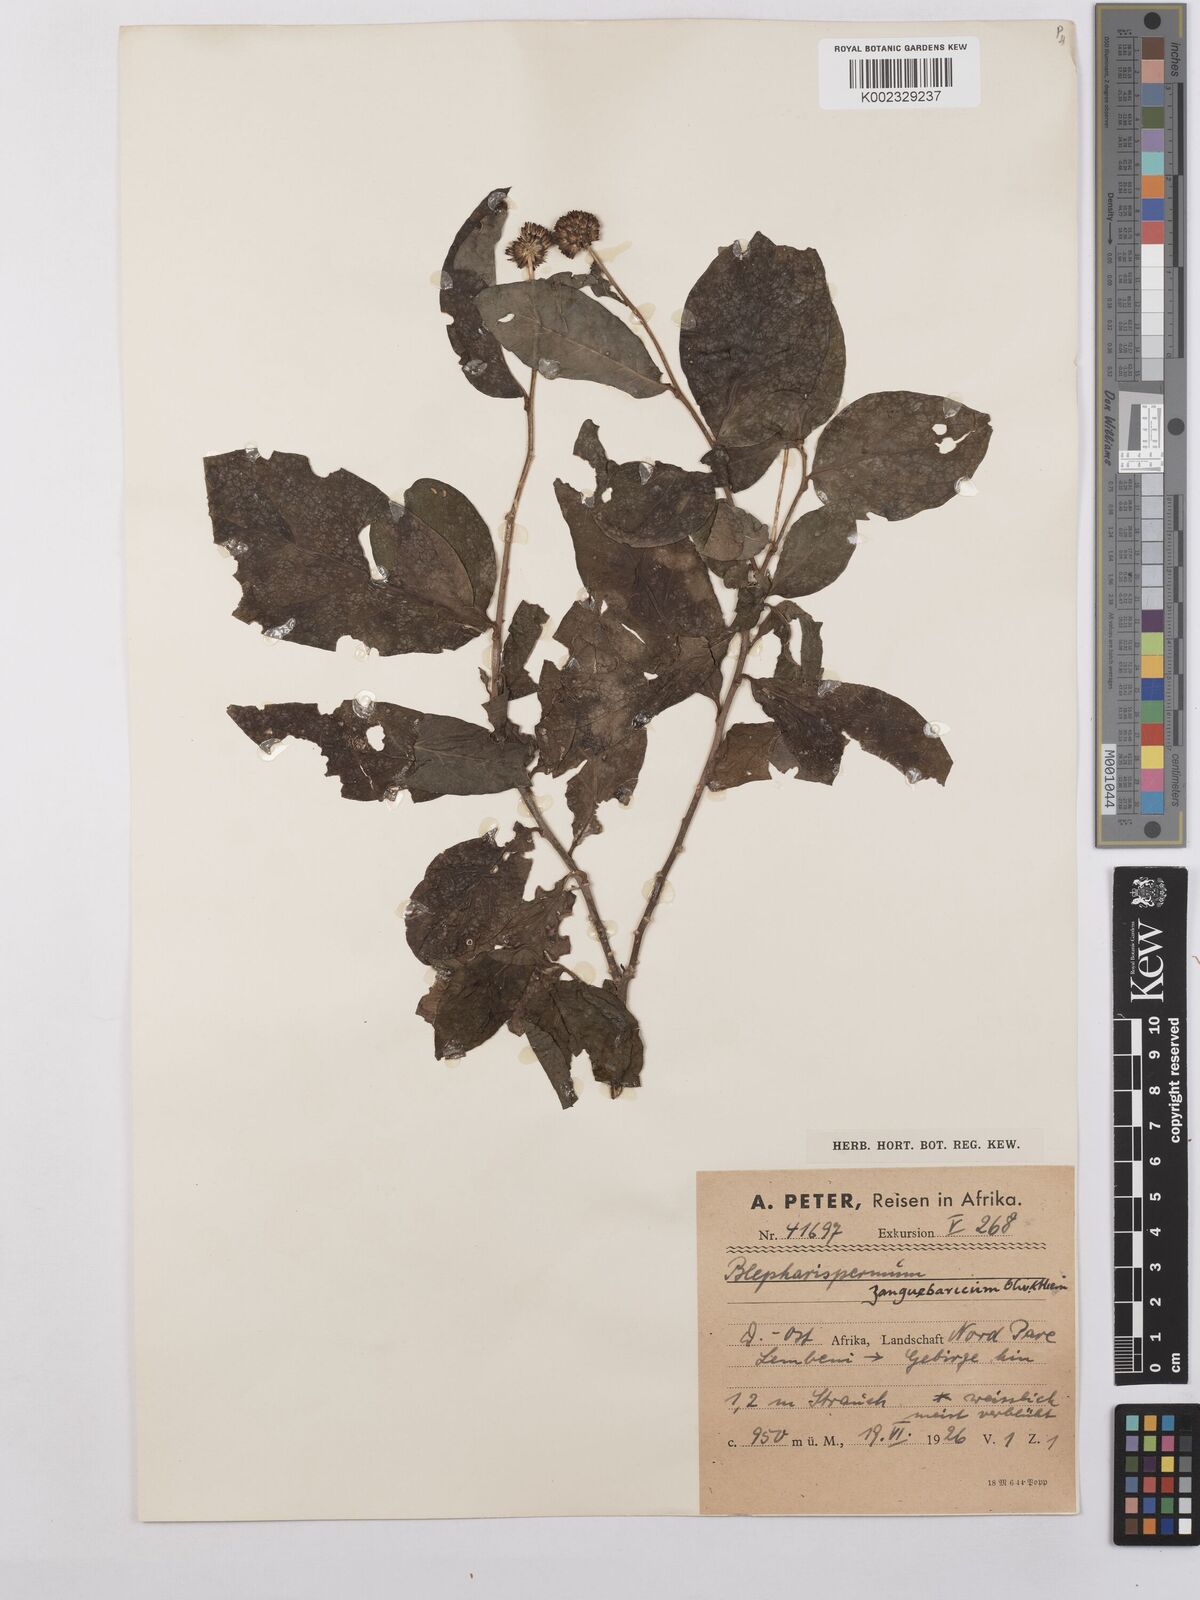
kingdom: Plantae
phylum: Tracheophyta
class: Magnoliopsida
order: Asterales
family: Asteraceae
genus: Blepharispermum
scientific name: Blepharispermum zanguebaricum
